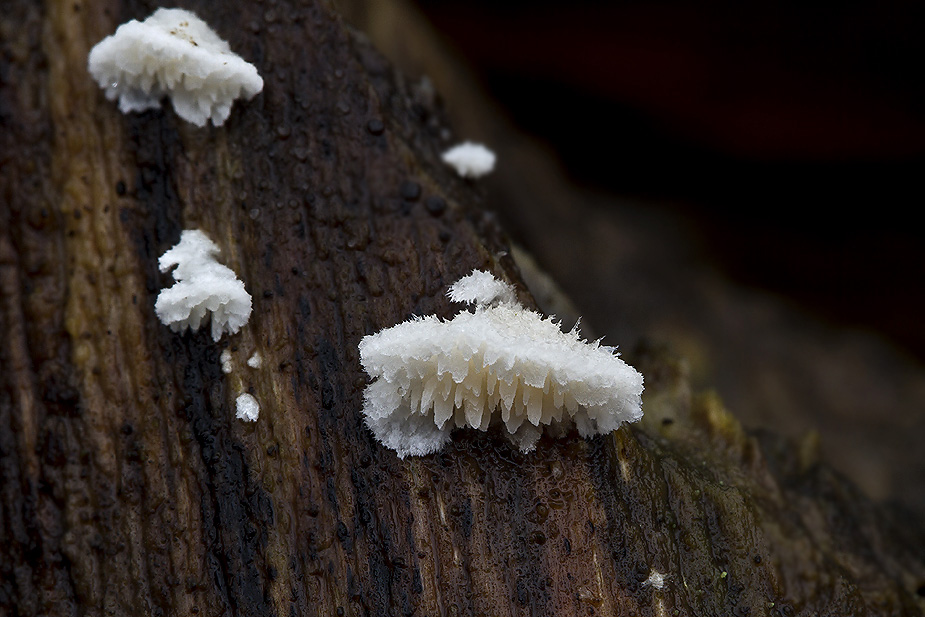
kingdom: Fungi
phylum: Basidiomycota
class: Agaricomycetes
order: Polyporales
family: Steccherinaceae
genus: Steccherinum
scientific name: Steccherinum oreophilum
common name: kvist-skønpig
